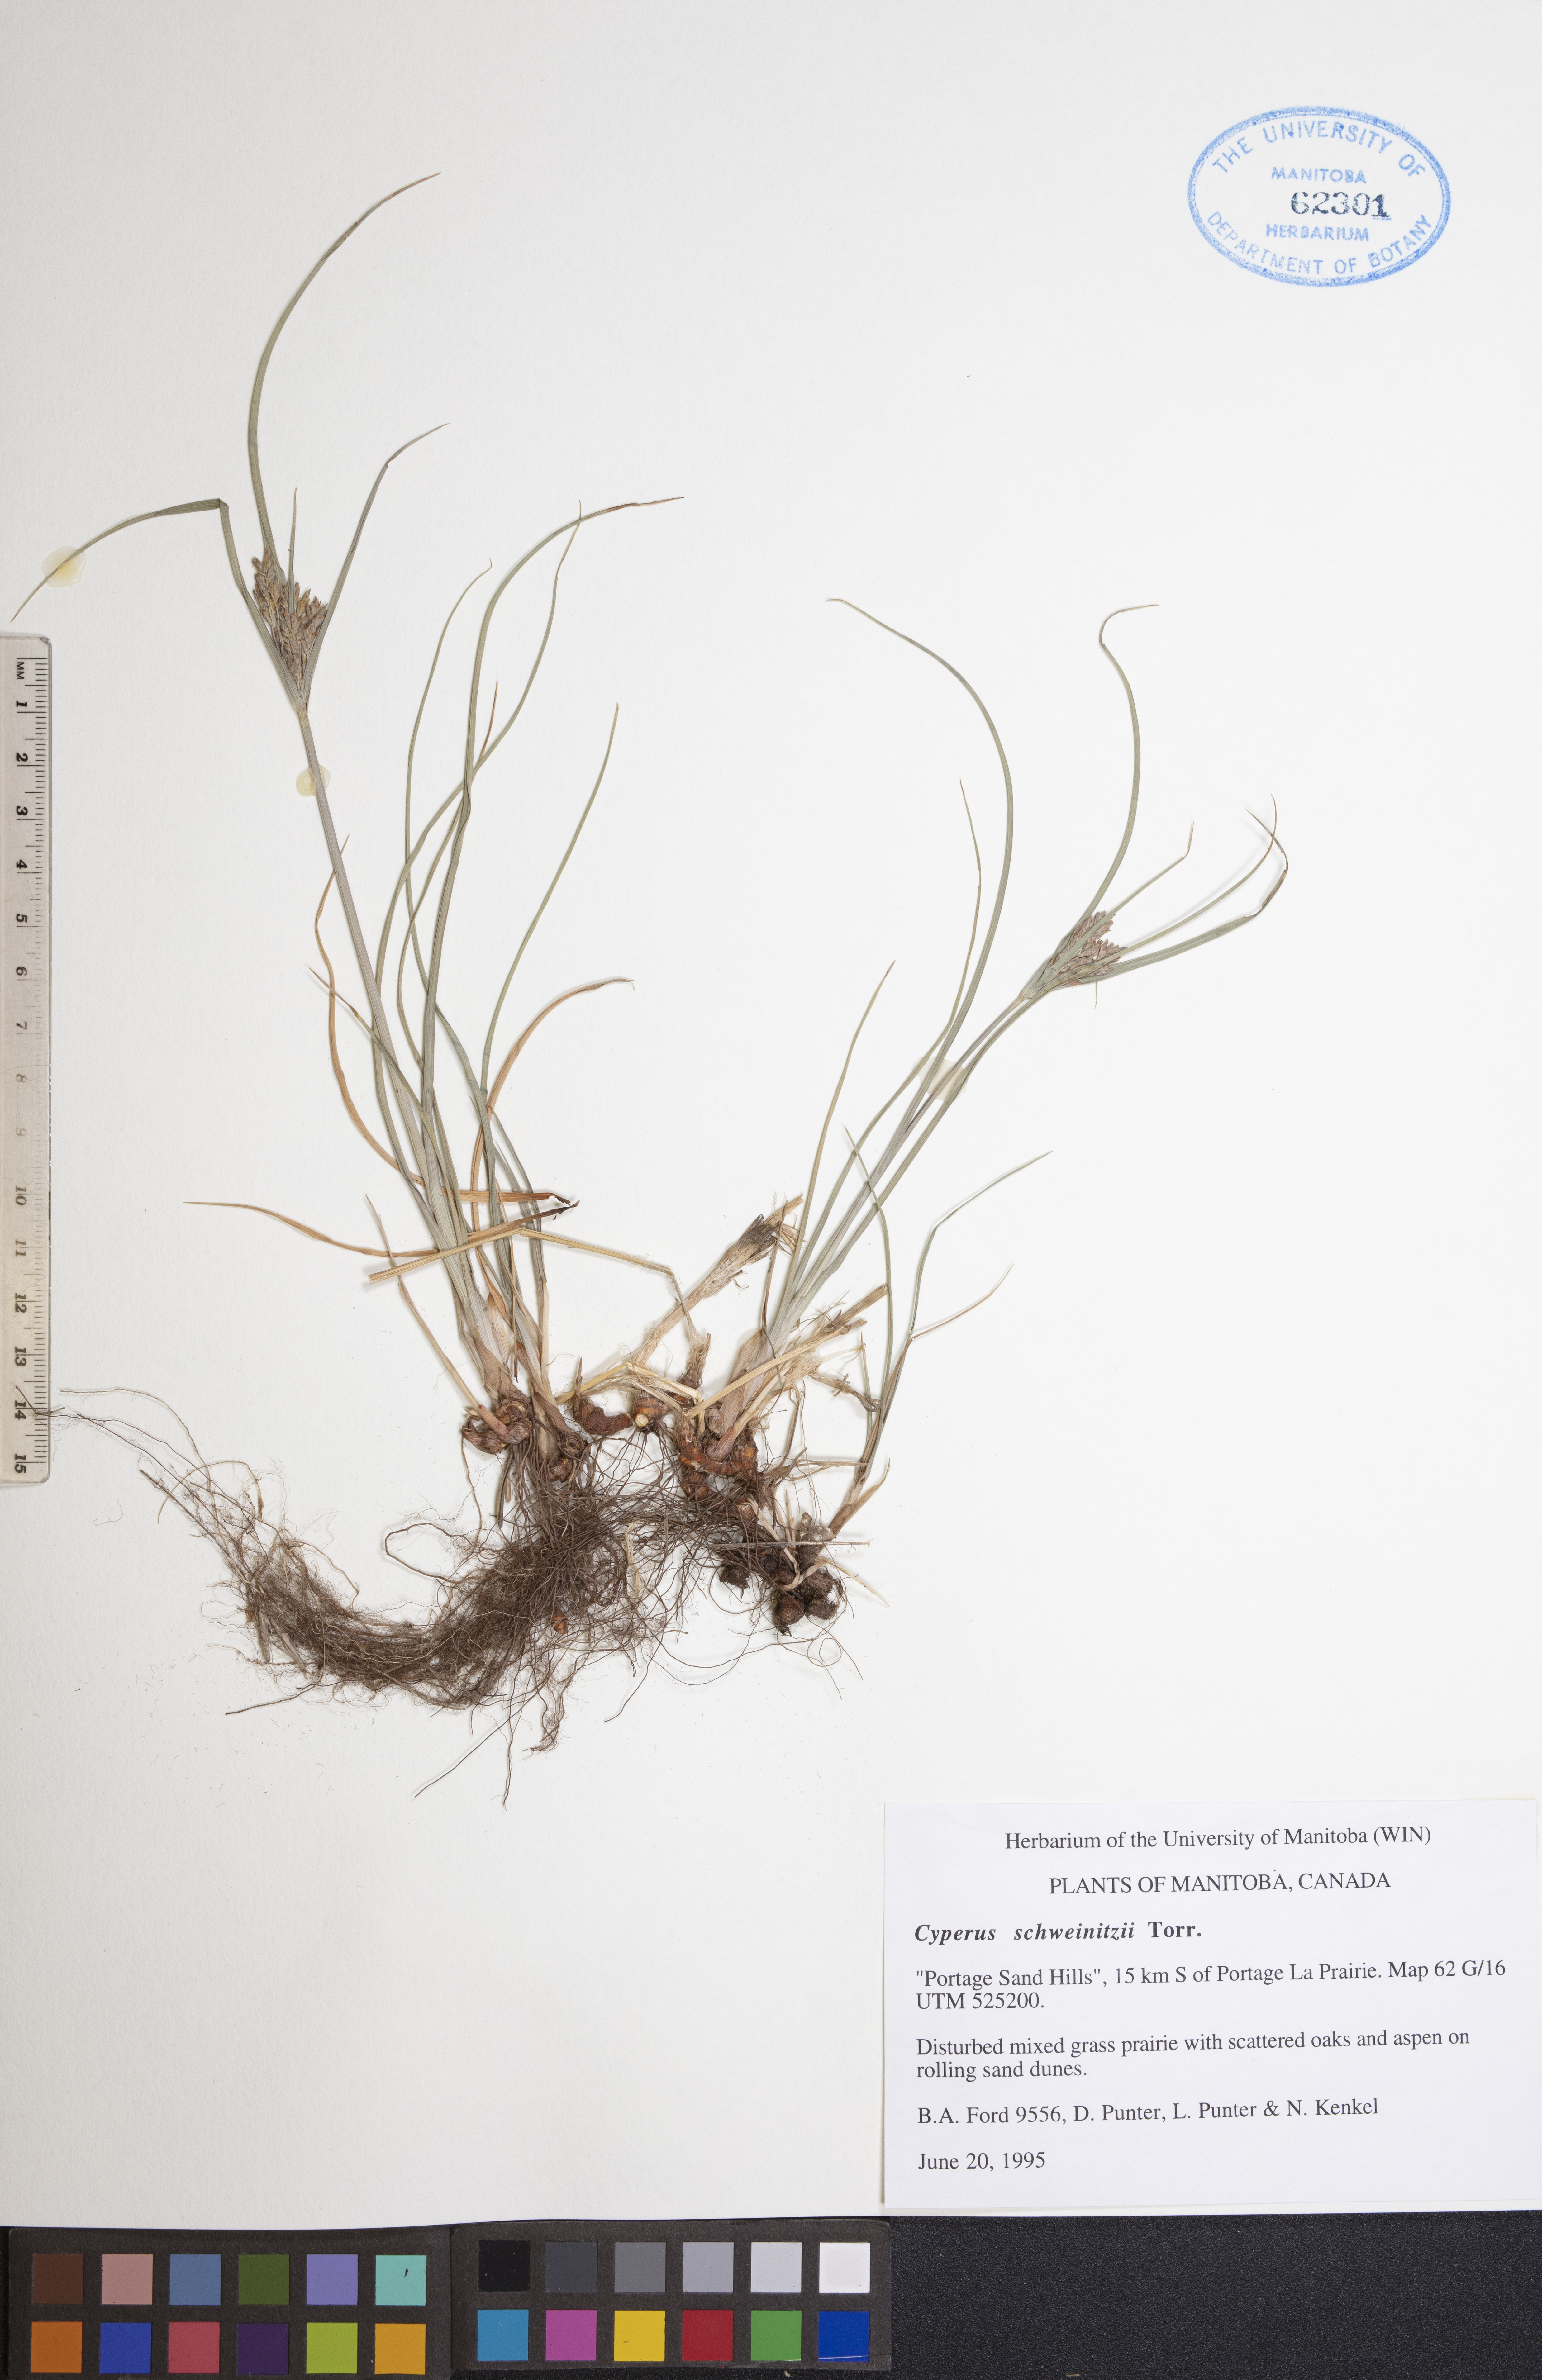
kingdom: Plantae
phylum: Tracheophyta
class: Liliopsida
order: Poales
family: Cyperaceae
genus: Cyperus
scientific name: Cyperus schweinitzii
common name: Schweinitz's cyperus
